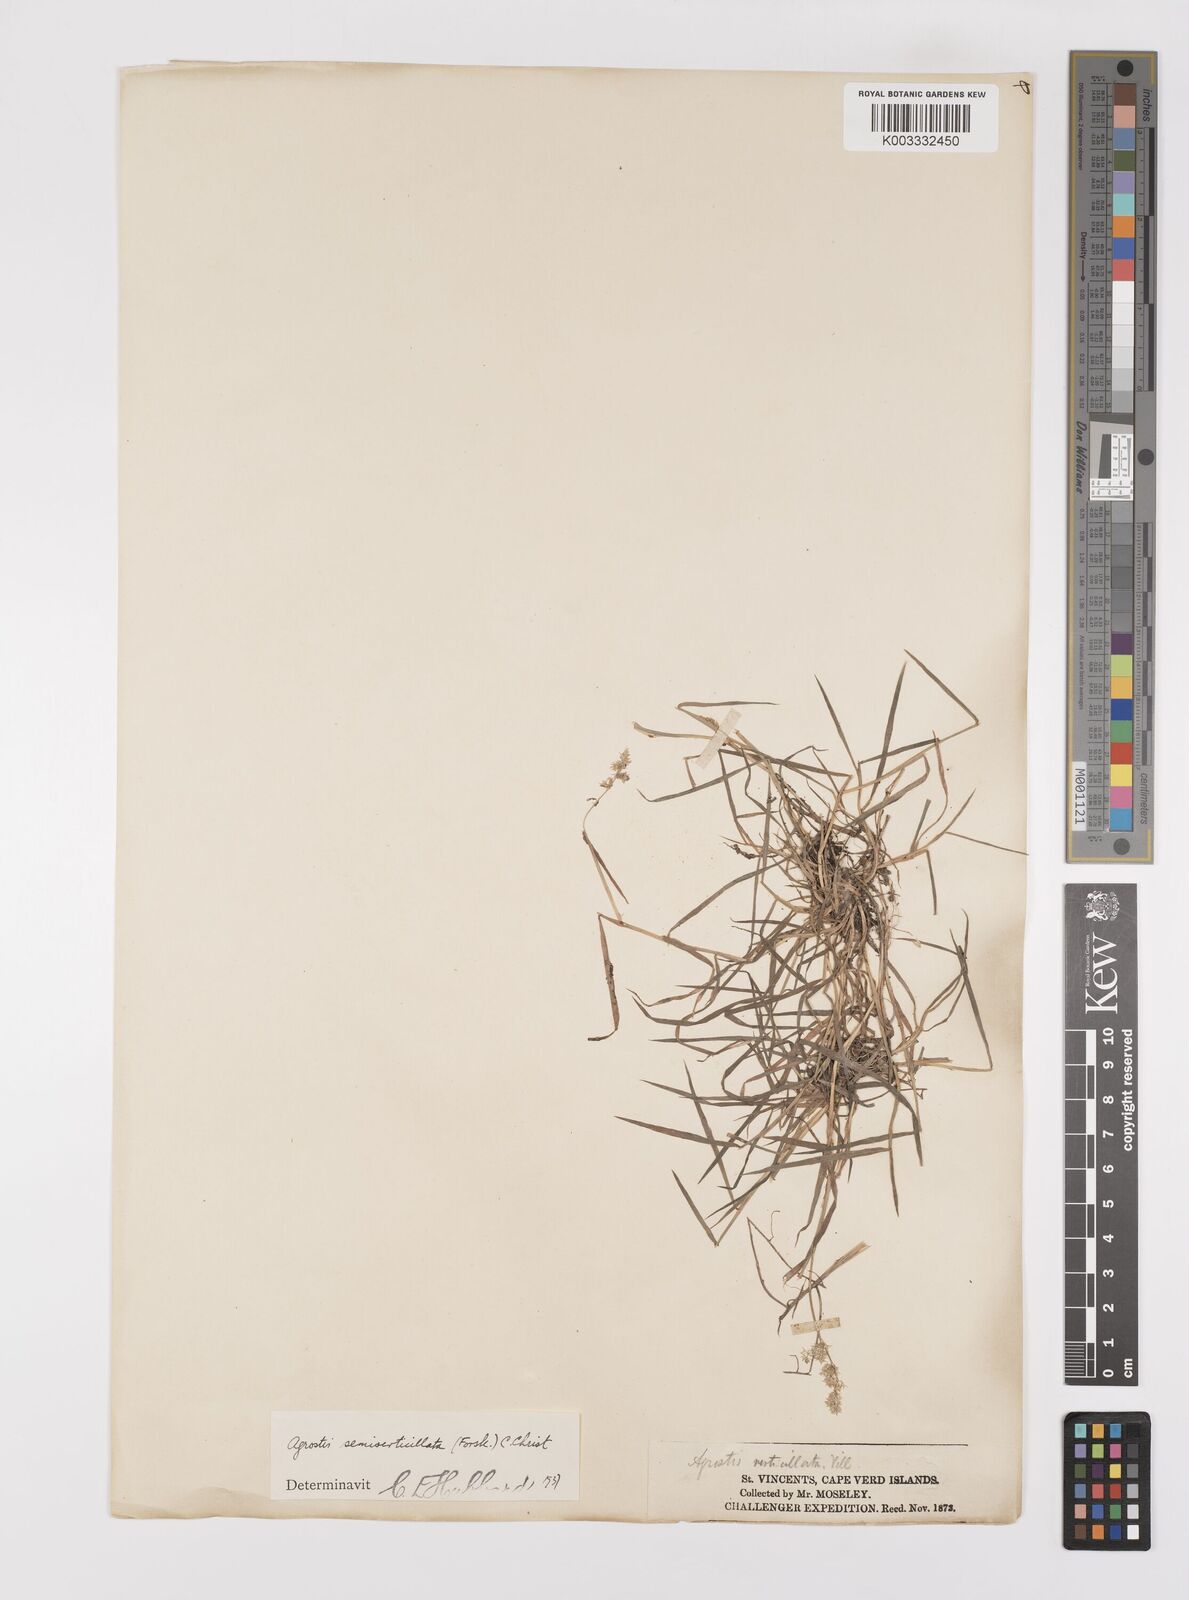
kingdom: Plantae
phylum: Tracheophyta
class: Liliopsida
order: Poales
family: Poaceae
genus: Polypogon
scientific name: Polypogon viridis
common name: Water bent
